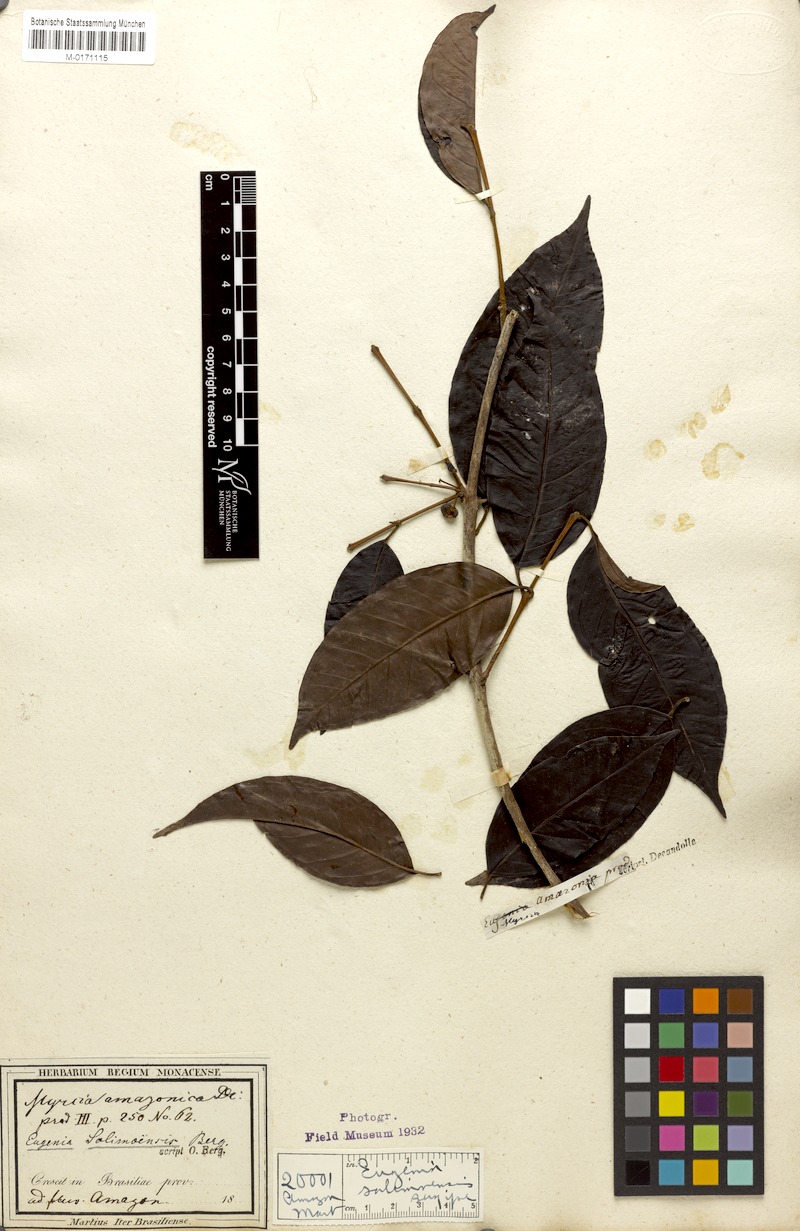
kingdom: Plantae
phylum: Tracheophyta
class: Magnoliopsida
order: Myrtales
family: Myrtaceae
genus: Myrcia
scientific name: Myrcia amazonica
